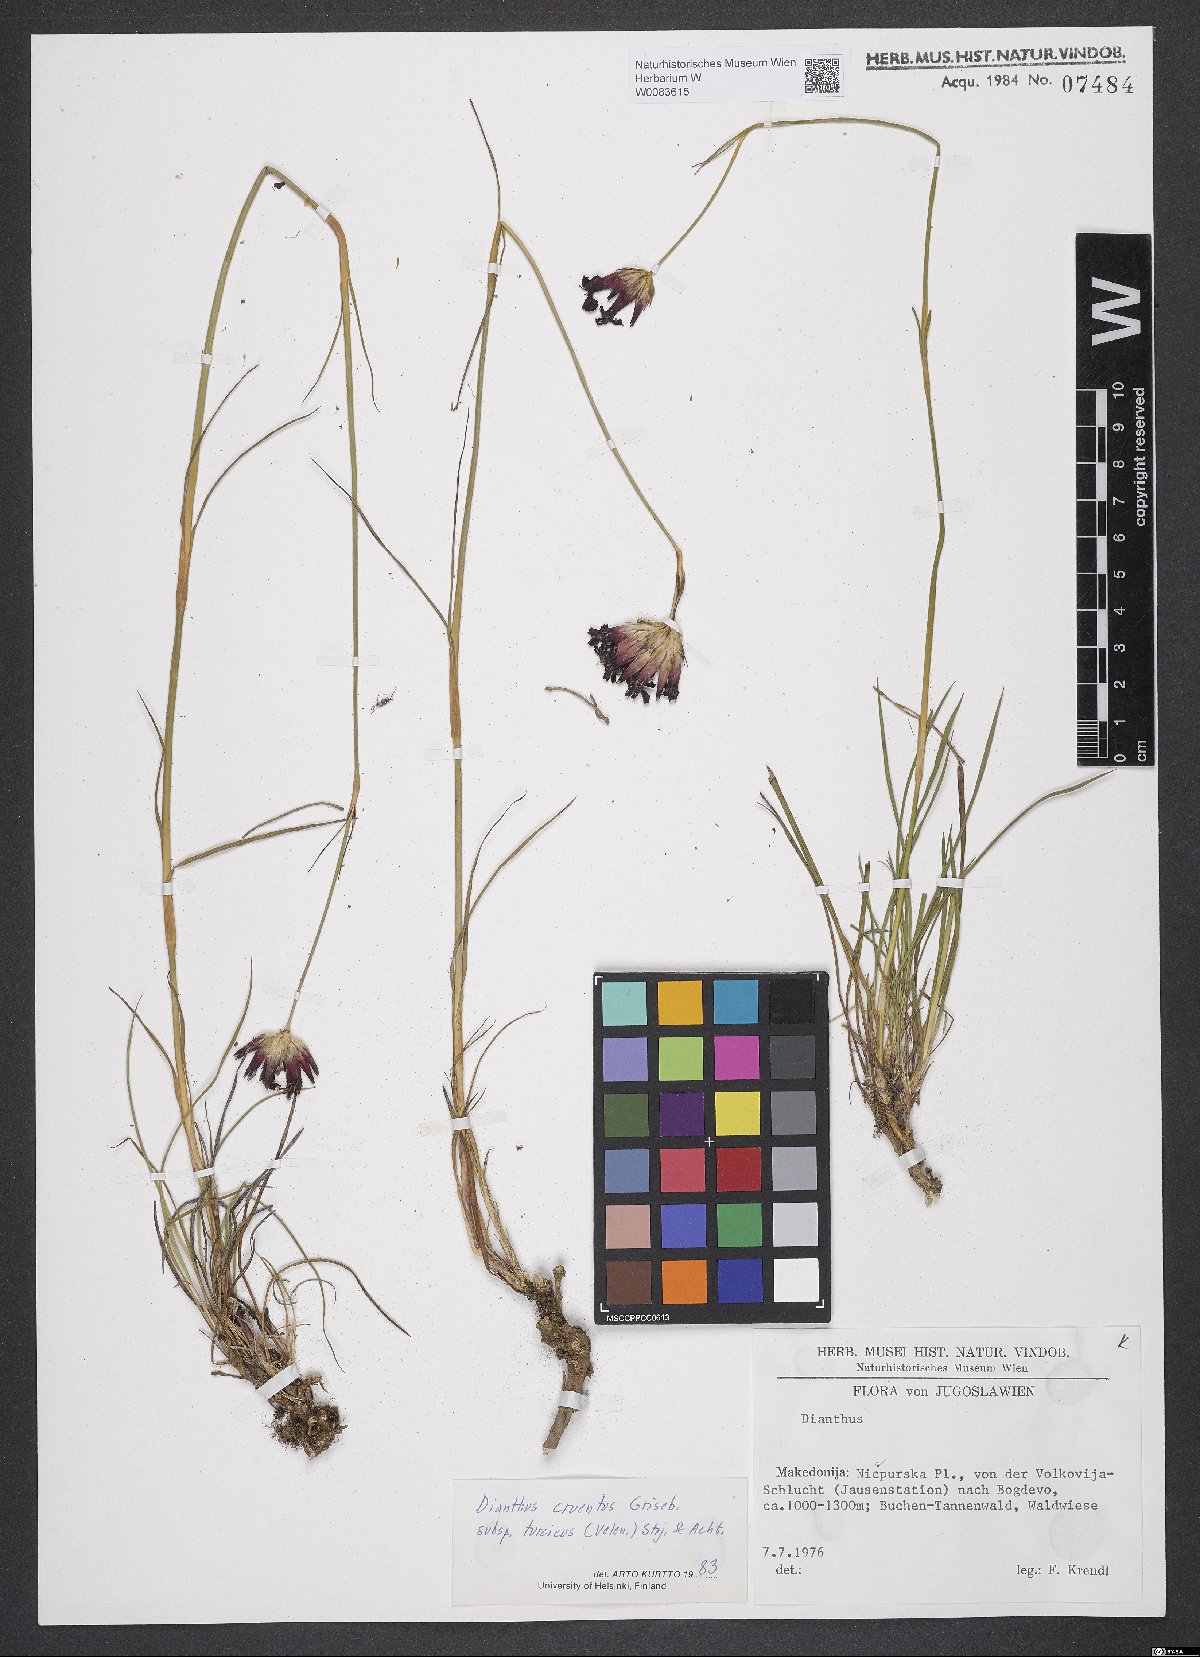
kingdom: Plantae
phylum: Tracheophyta
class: Magnoliopsida
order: Caryophyllales
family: Caryophyllaceae
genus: Dianthus
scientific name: Dianthus cruentus
